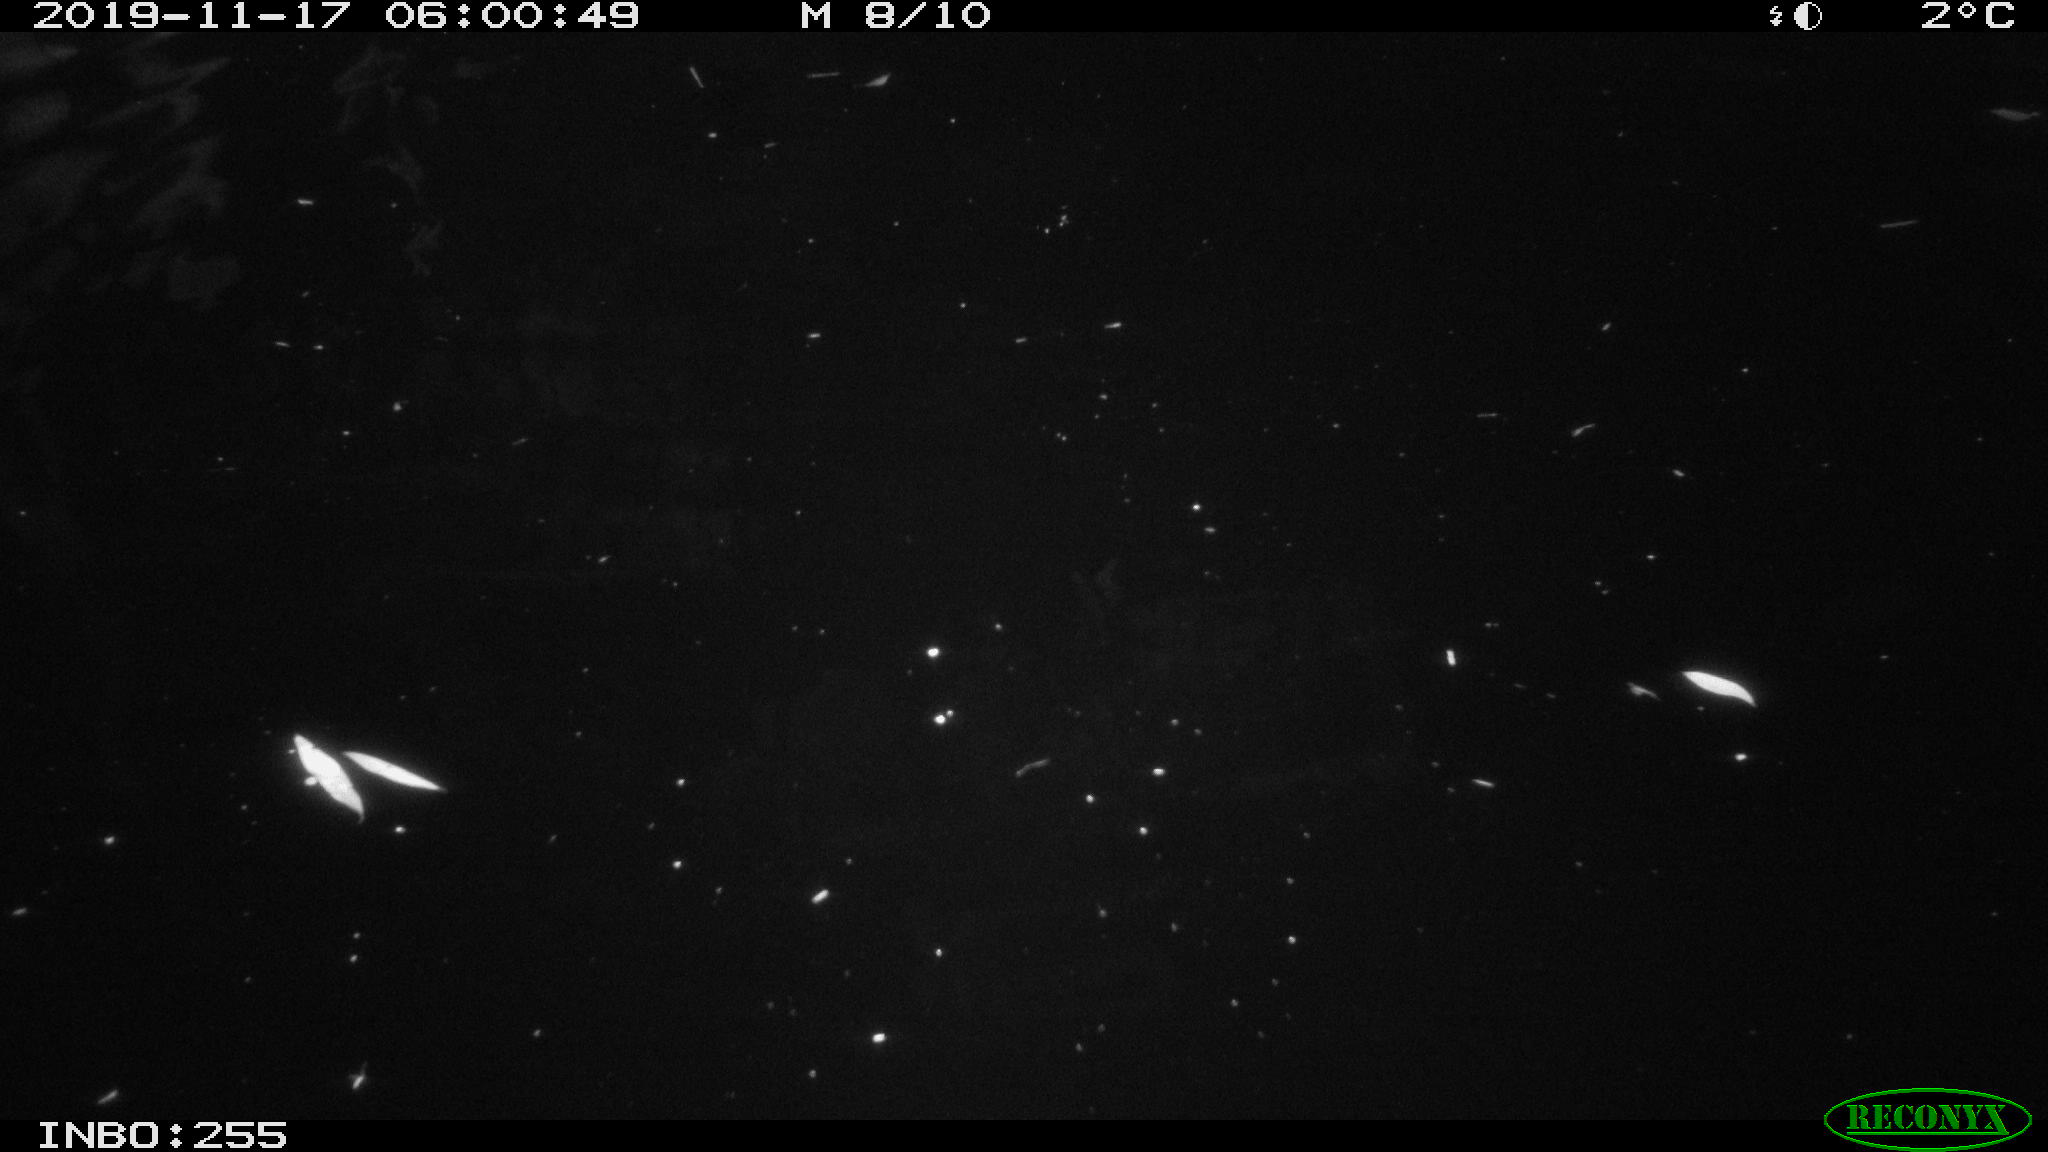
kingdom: Animalia
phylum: Chordata
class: Mammalia
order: Rodentia
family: Cricetidae
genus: Ondatra
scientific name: Ondatra zibethicus
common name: Muskrat
